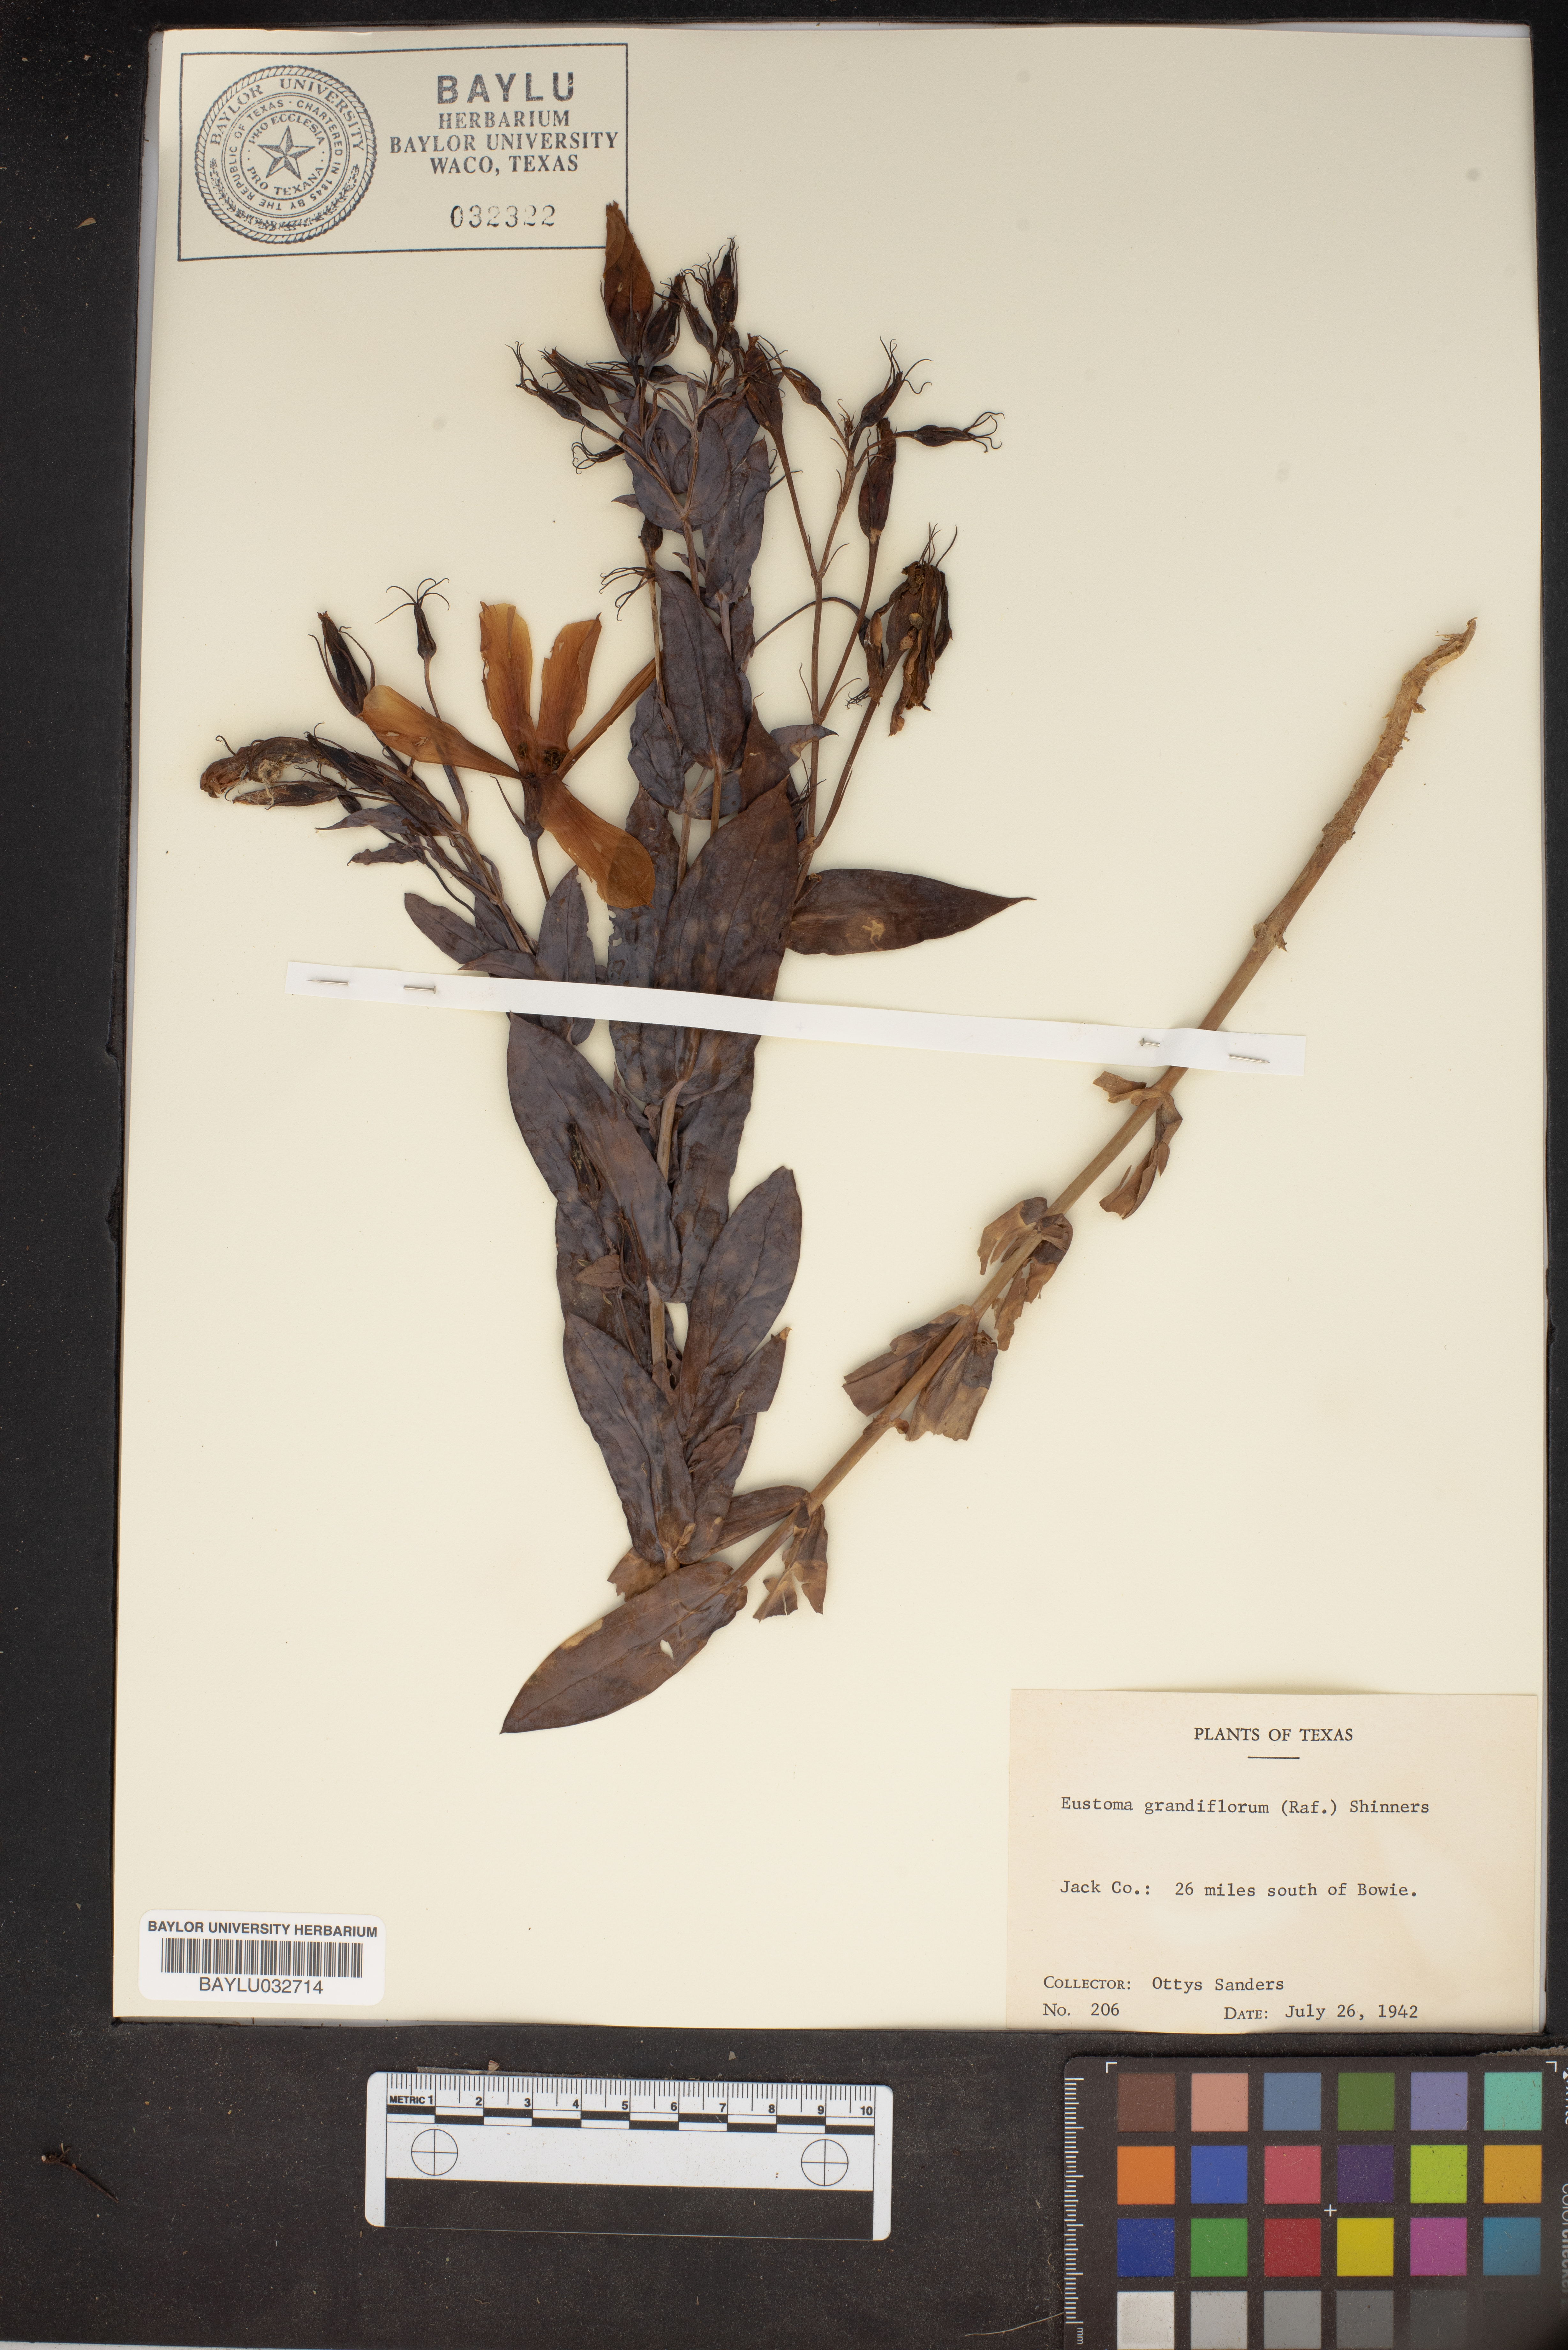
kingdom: Plantae
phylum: Tracheophyta
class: Magnoliopsida
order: Gentianales
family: Gentianaceae
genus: Eustoma
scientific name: Eustoma russellianum
